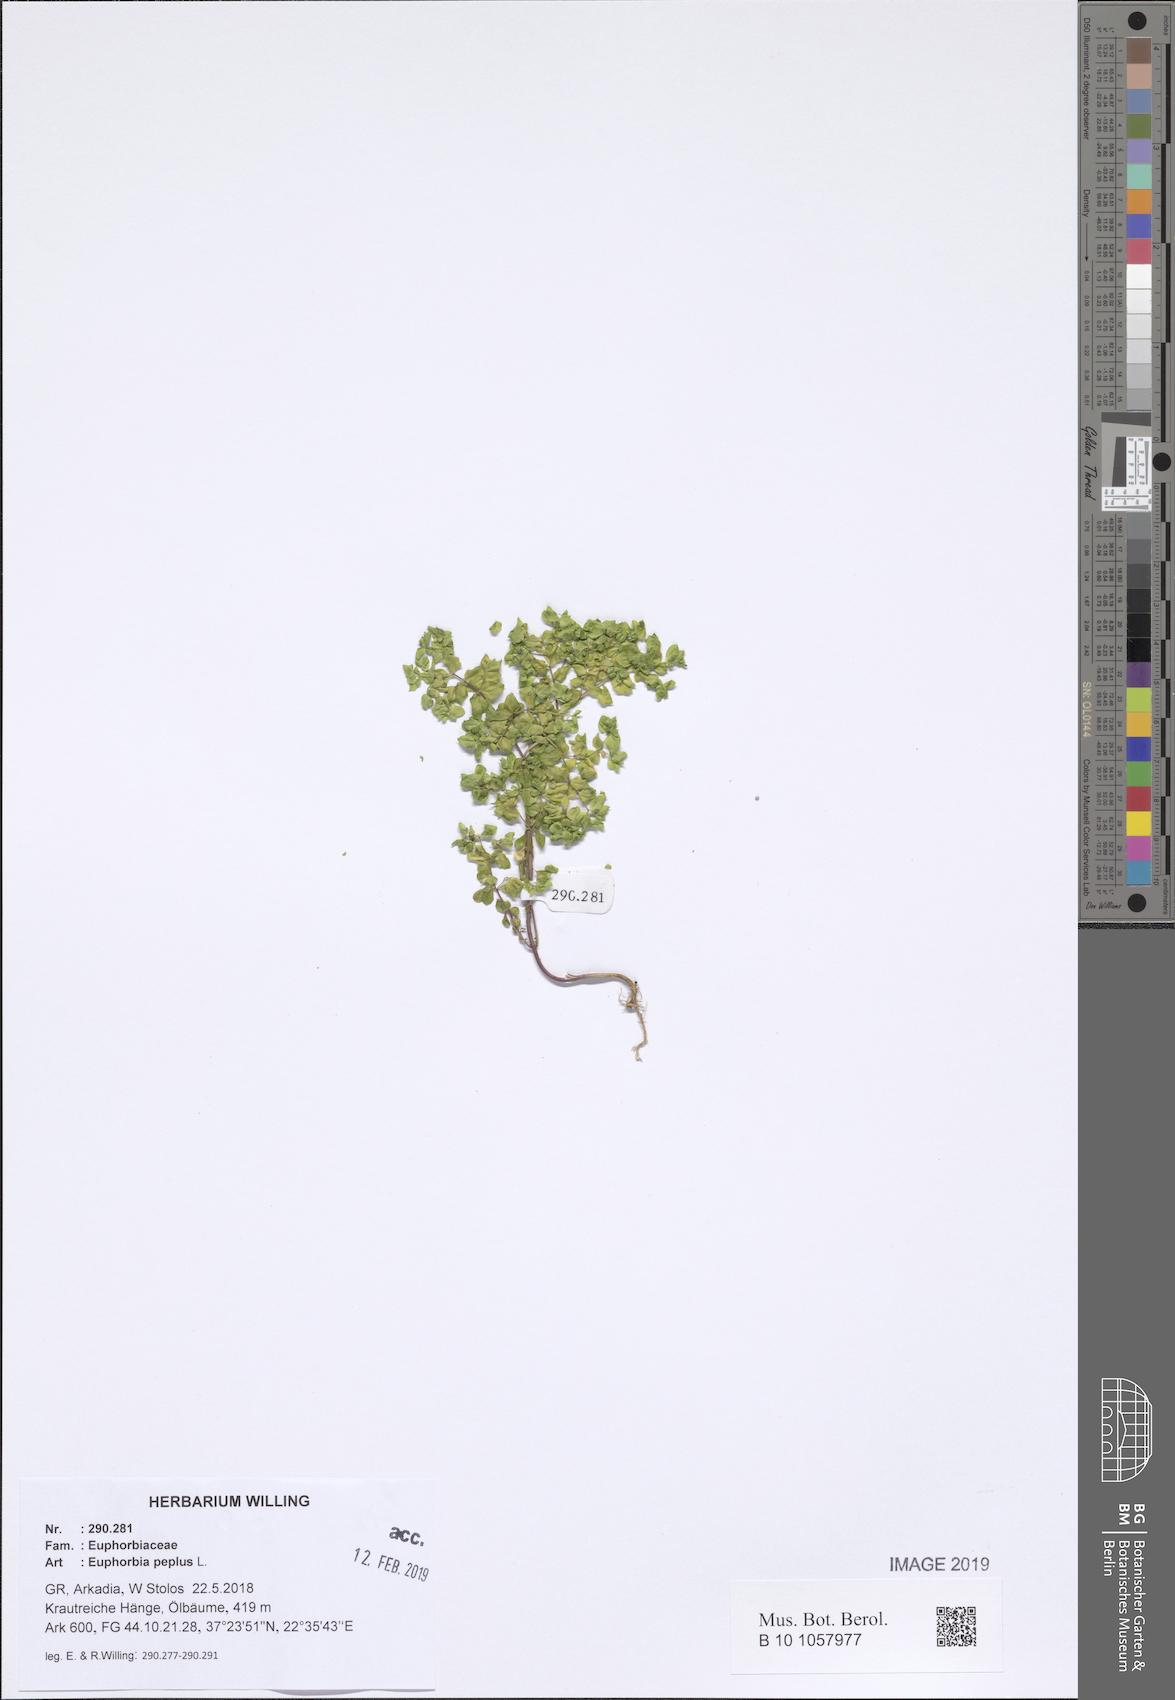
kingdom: Plantae
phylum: Tracheophyta
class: Magnoliopsida
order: Malpighiales
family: Euphorbiaceae
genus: Euphorbia
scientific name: Euphorbia peplus
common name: Petty spurge
